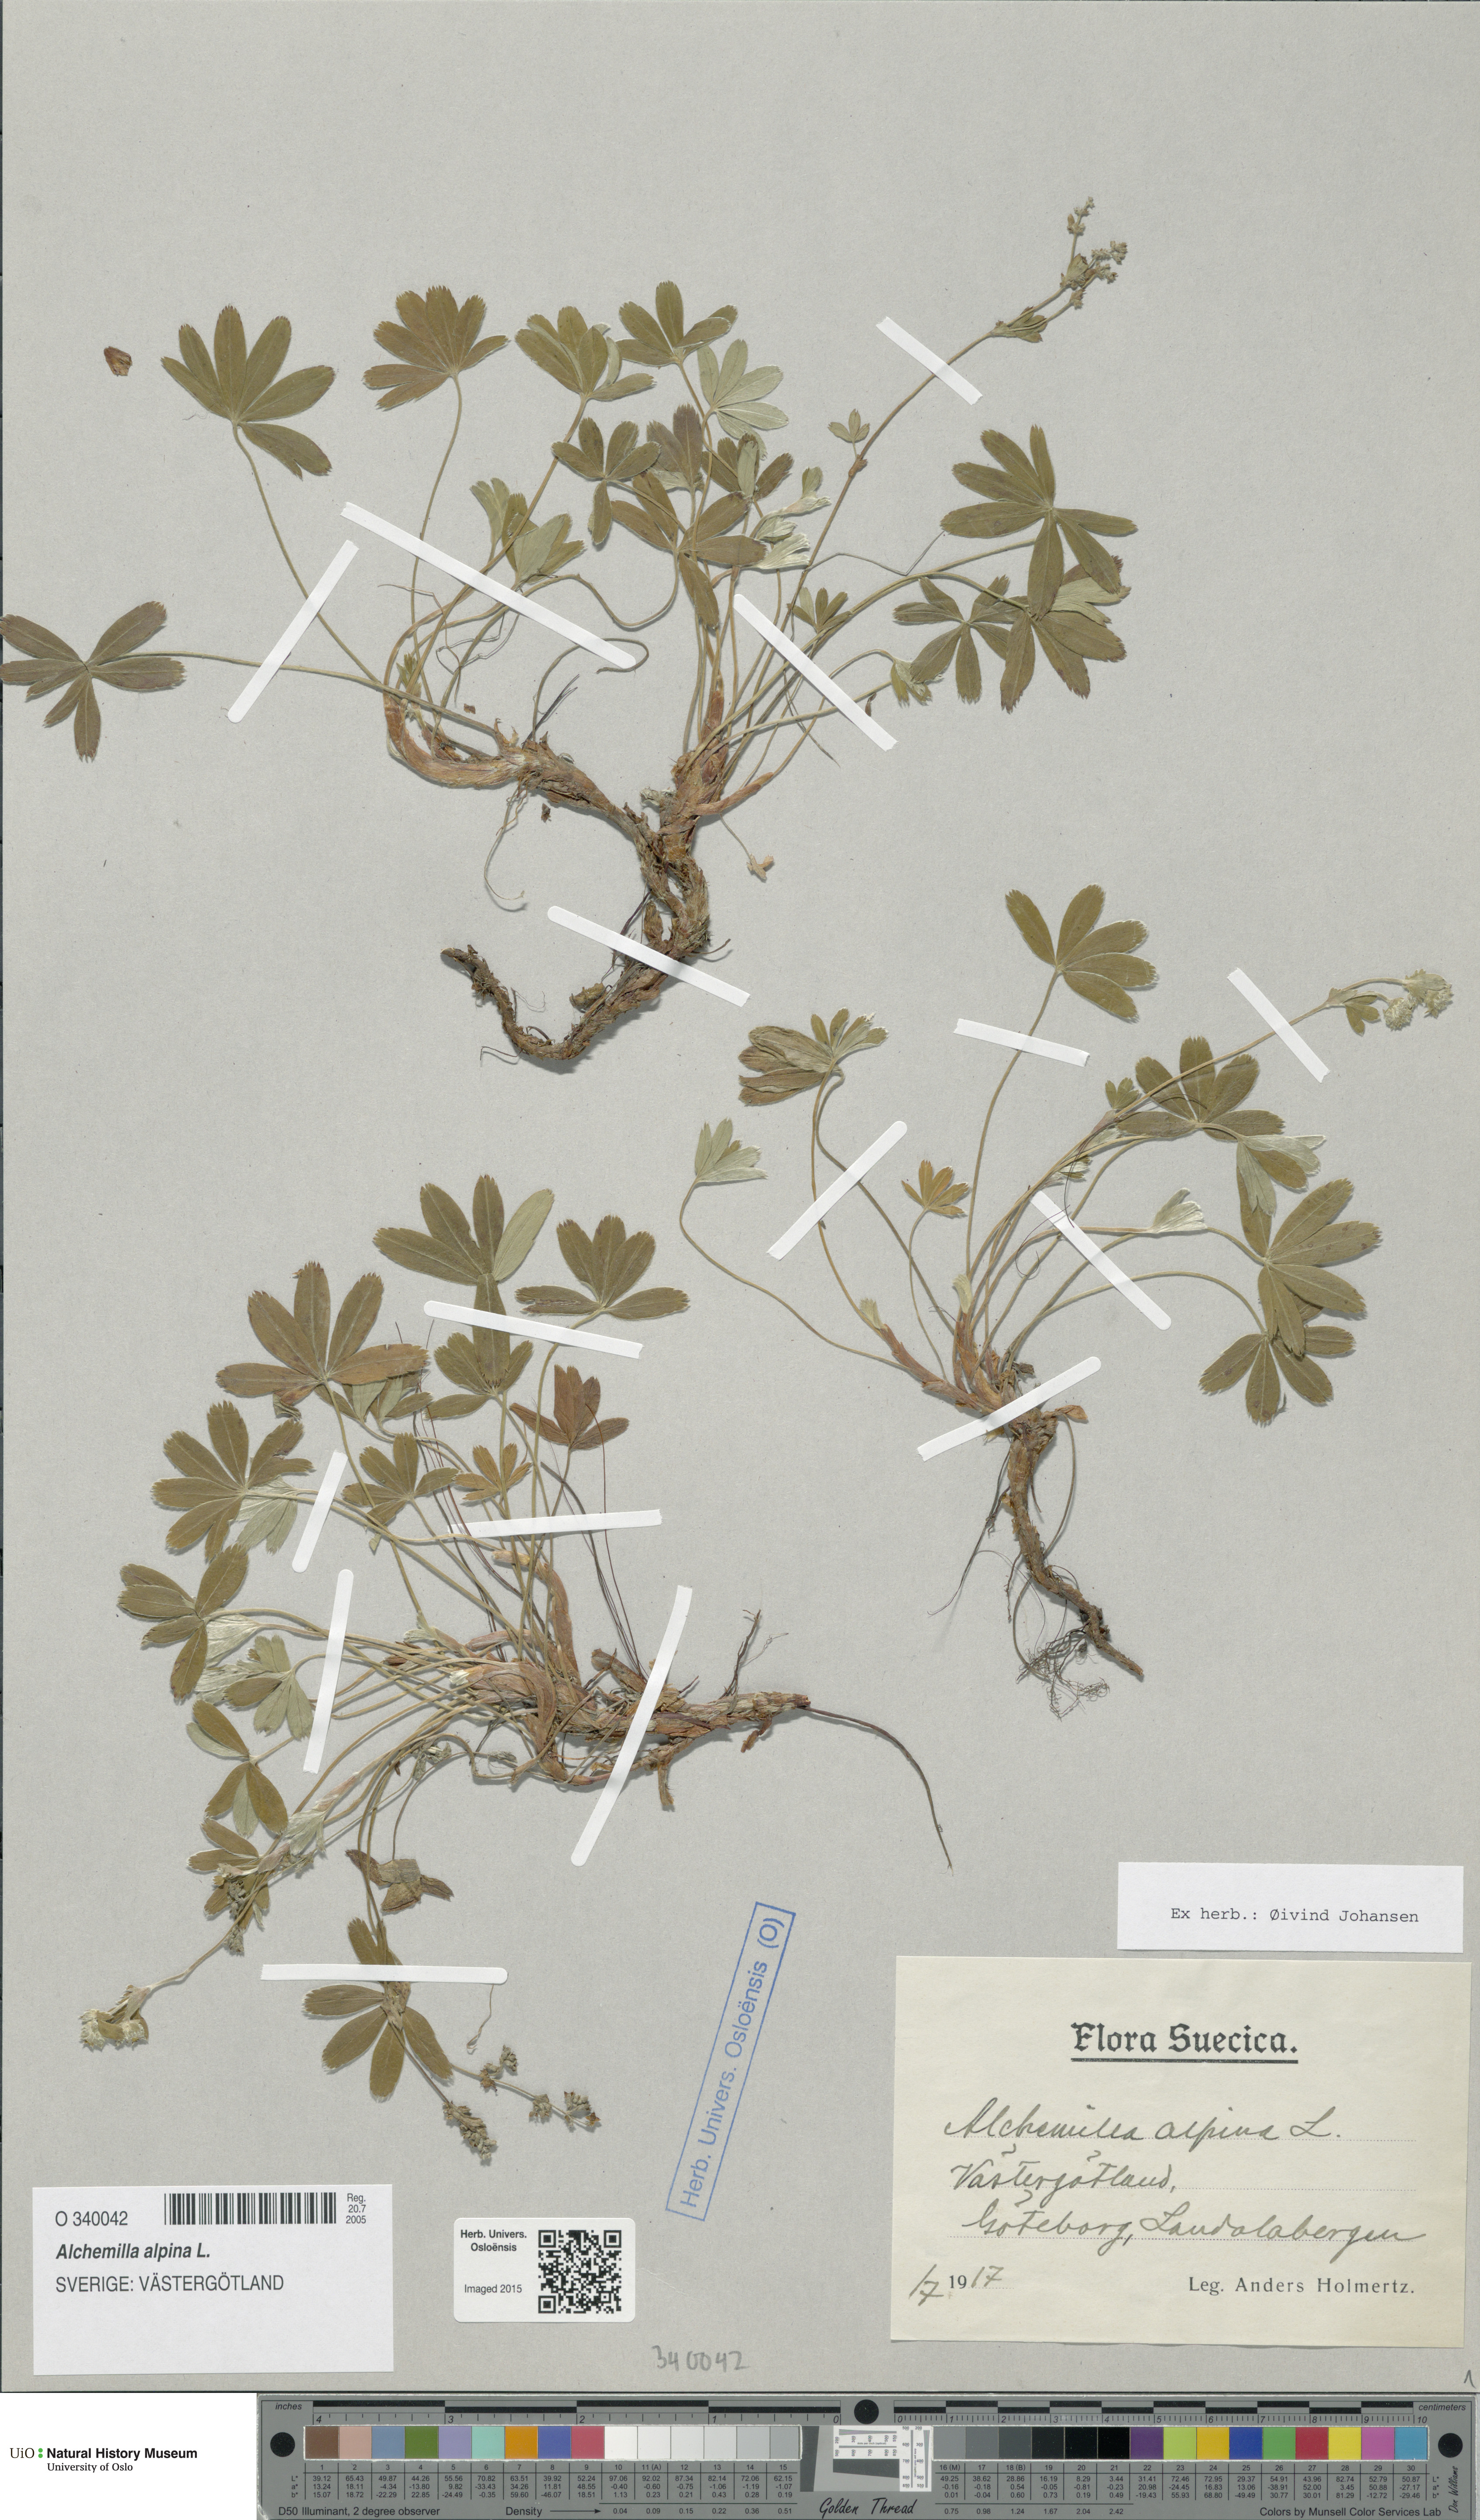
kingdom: Plantae
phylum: Tracheophyta
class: Magnoliopsida
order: Rosales
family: Rosaceae
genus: Alchemilla
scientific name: Alchemilla alpina
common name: Alpine lady's-mantle
